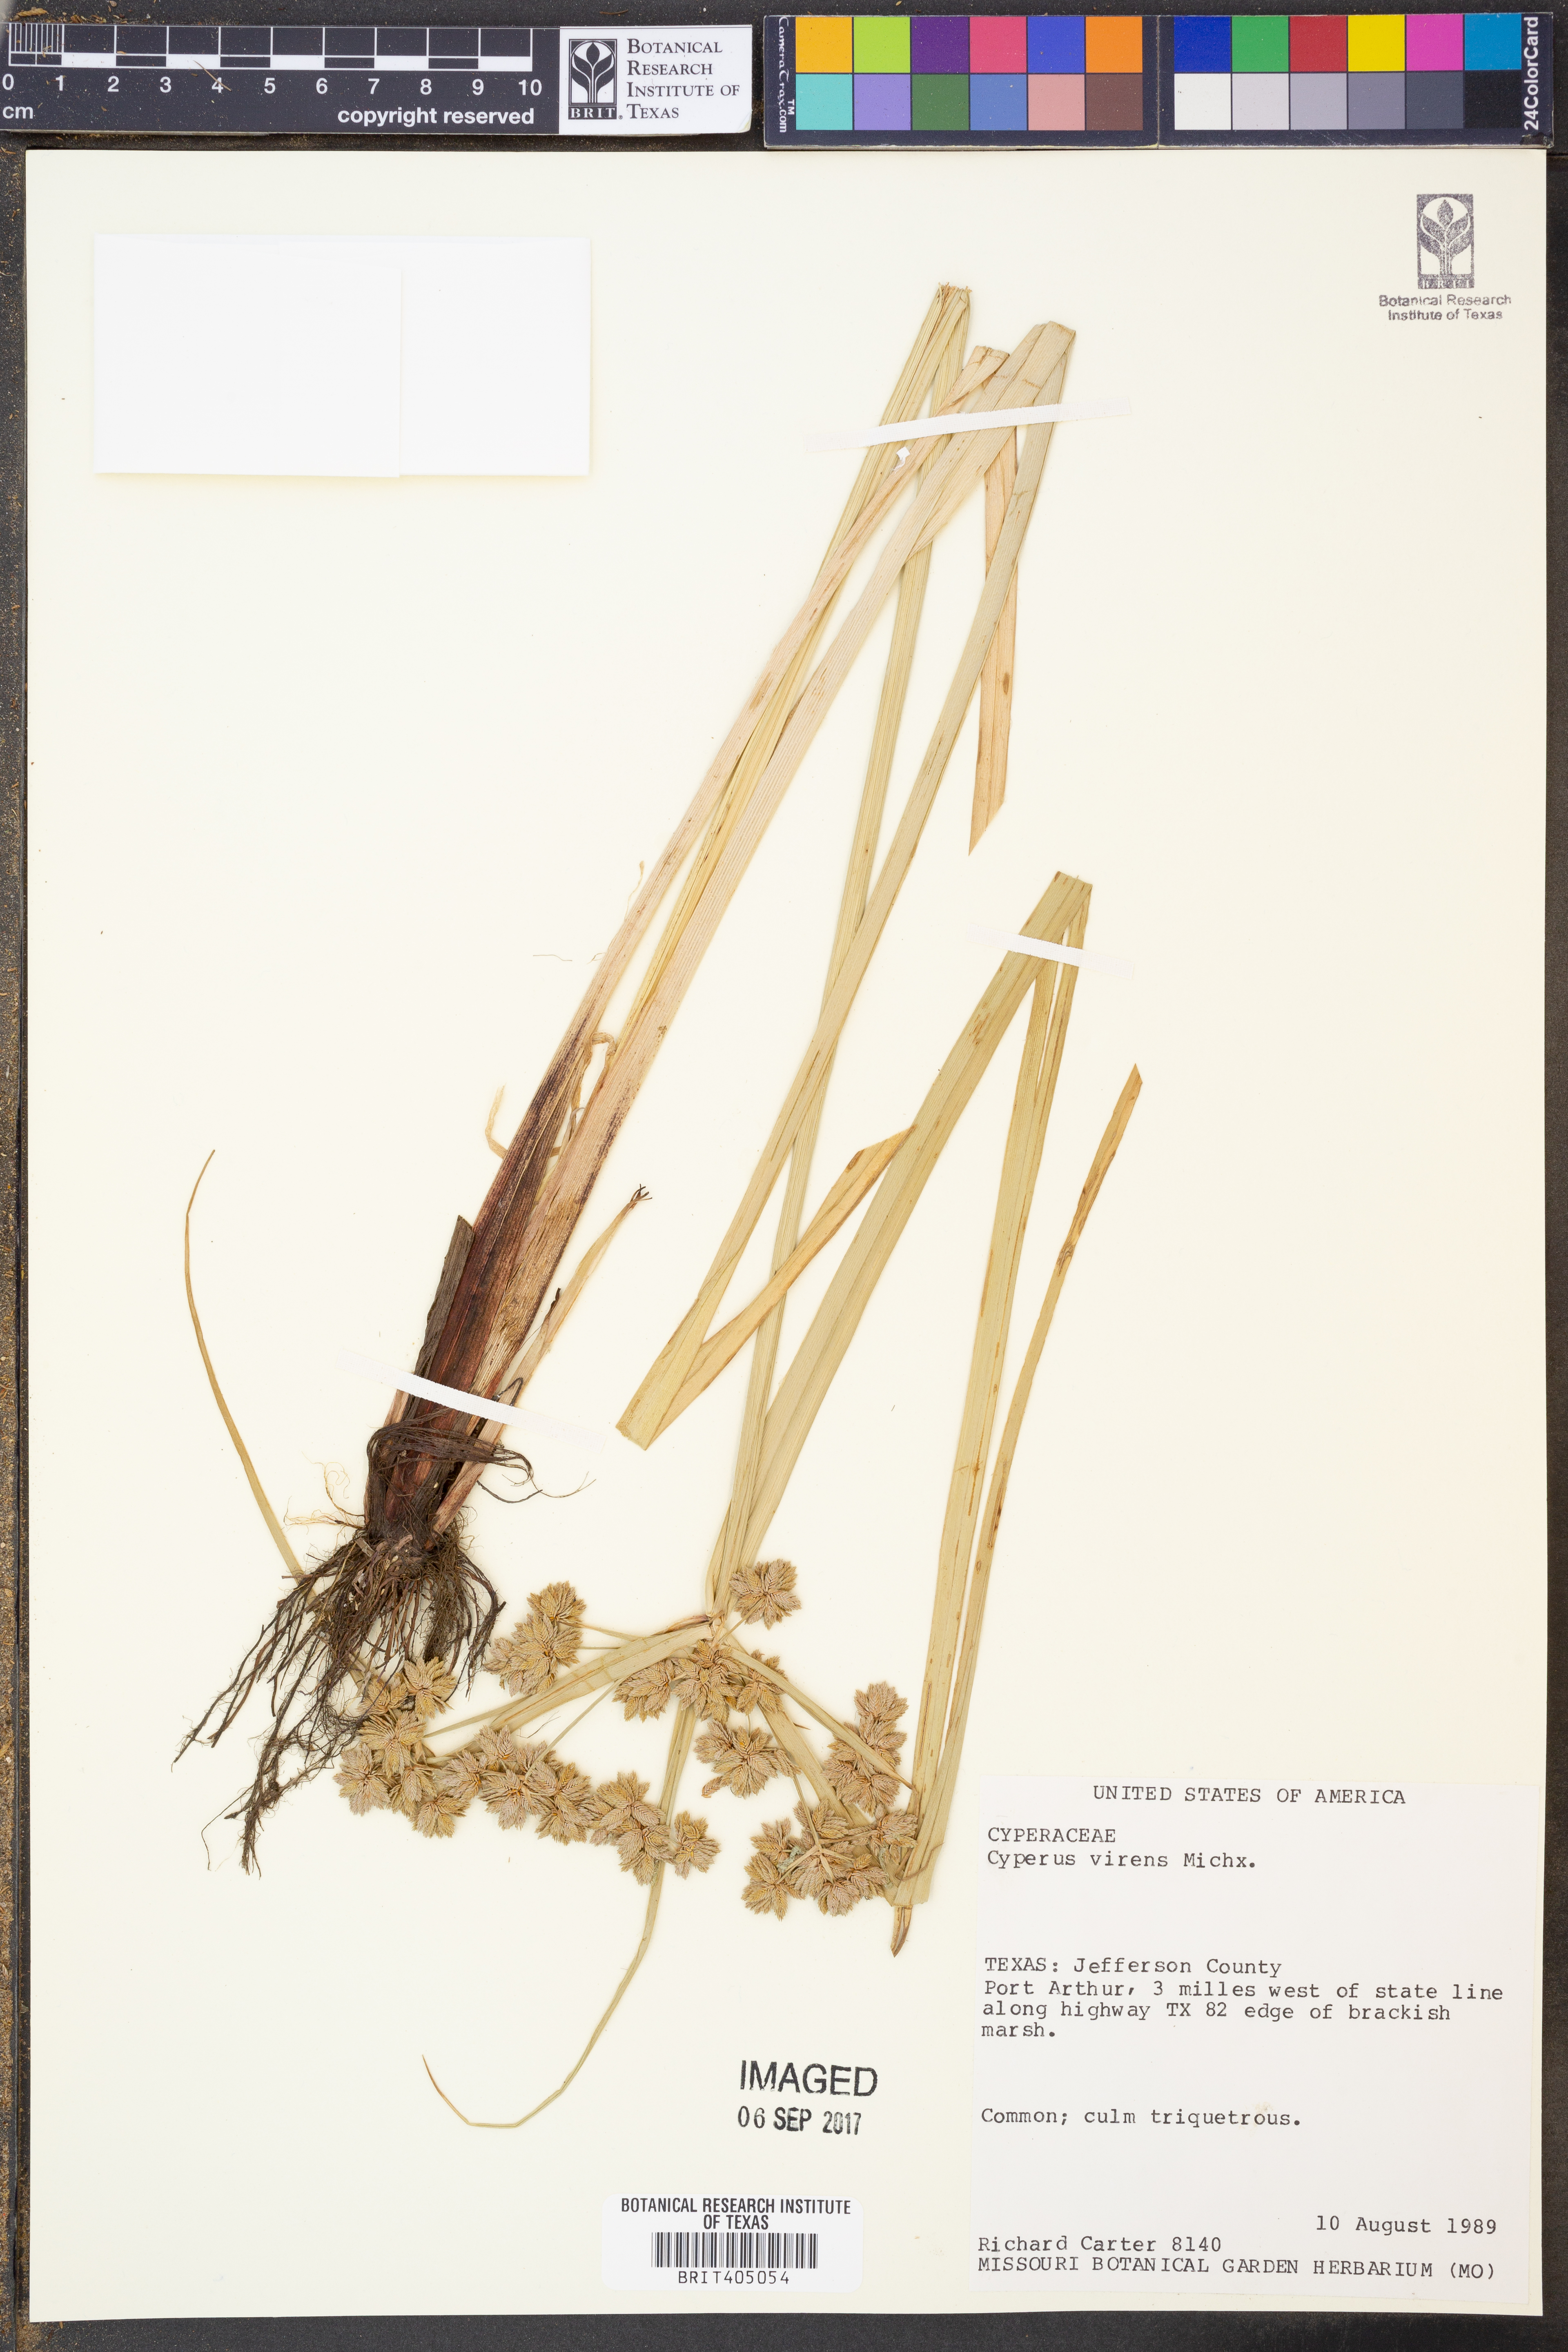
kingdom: Plantae
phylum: Tracheophyta
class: Liliopsida
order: Poales
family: Cyperaceae
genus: Cyperus
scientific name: Cyperus virens
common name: Green flatsedge
